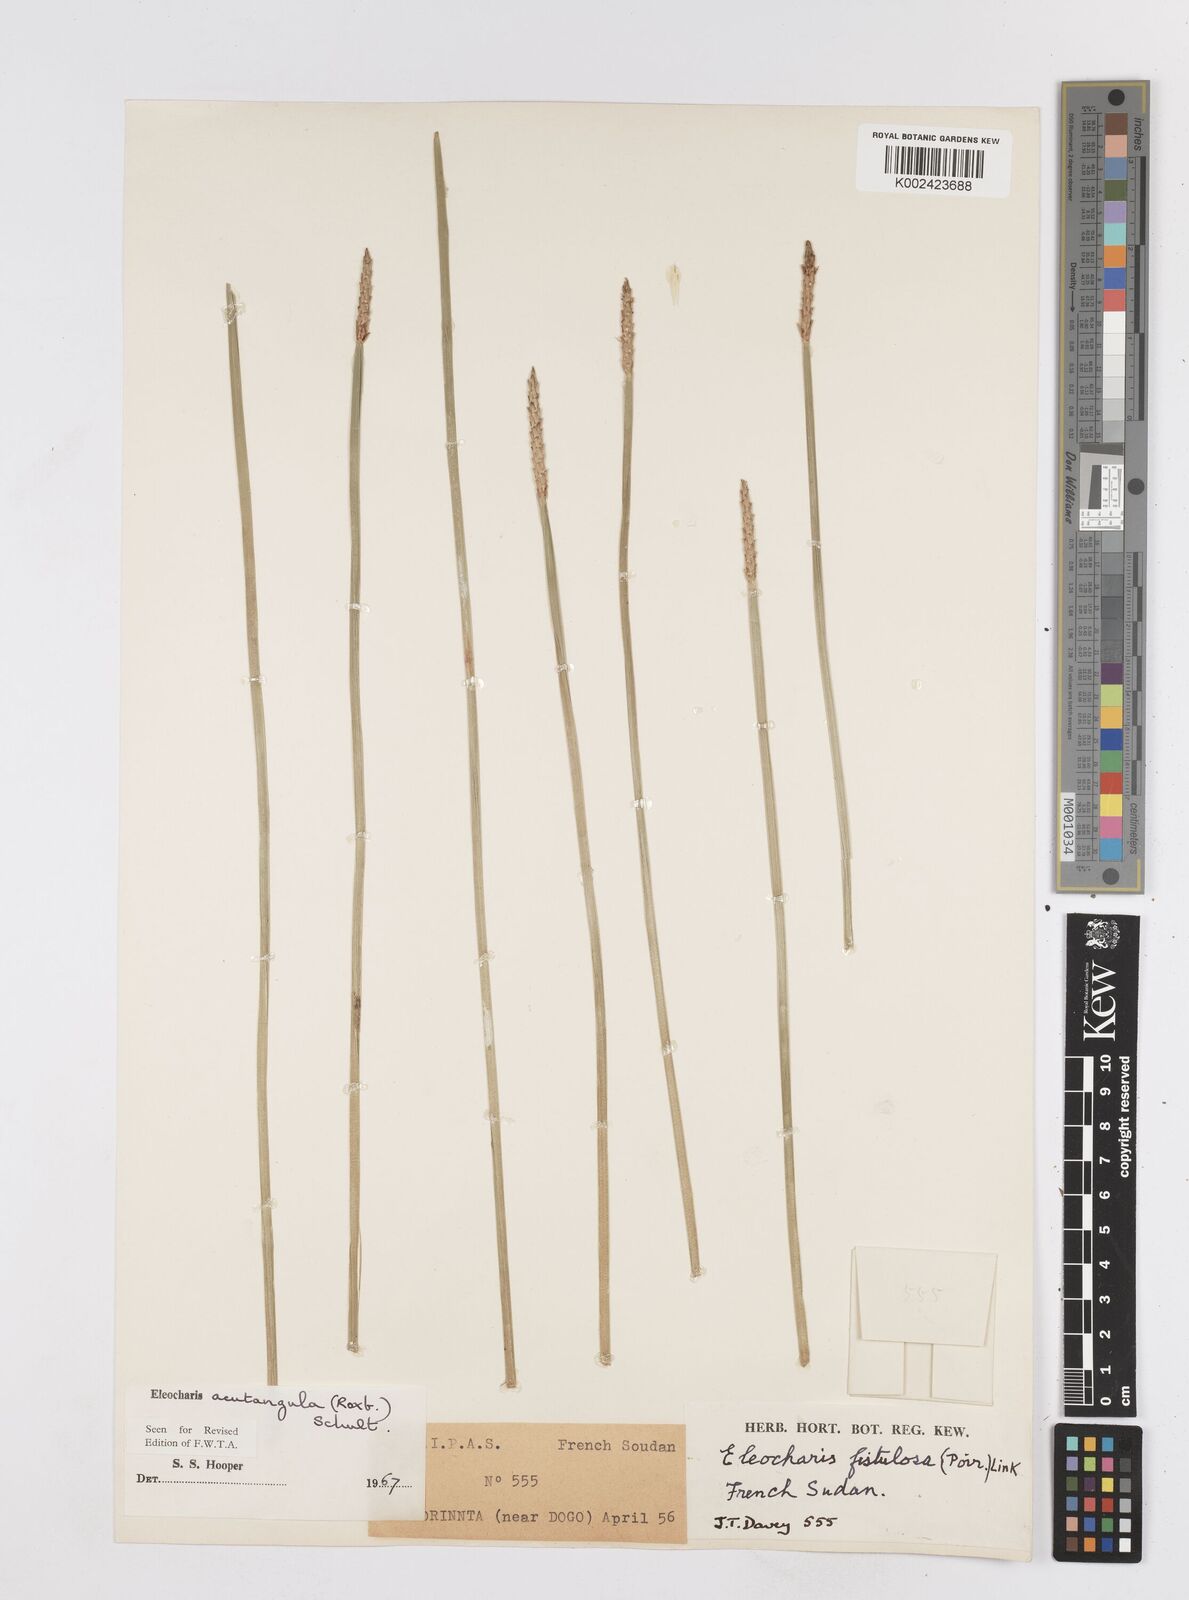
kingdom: Plantae
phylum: Tracheophyta
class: Liliopsida
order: Poales
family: Cyperaceae
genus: Eleocharis
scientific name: Eleocharis
